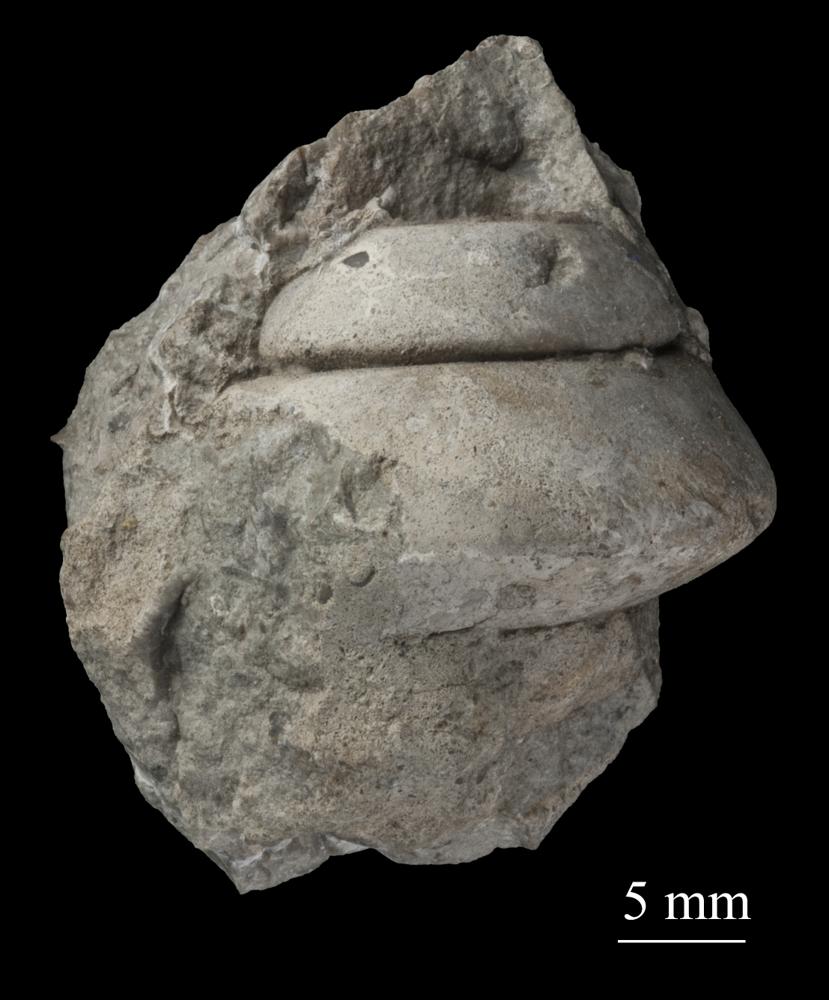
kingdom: Animalia
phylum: Mollusca
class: Gastropoda
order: Trochida
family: Trochidae
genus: Trochus
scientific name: Trochus ellipticus
